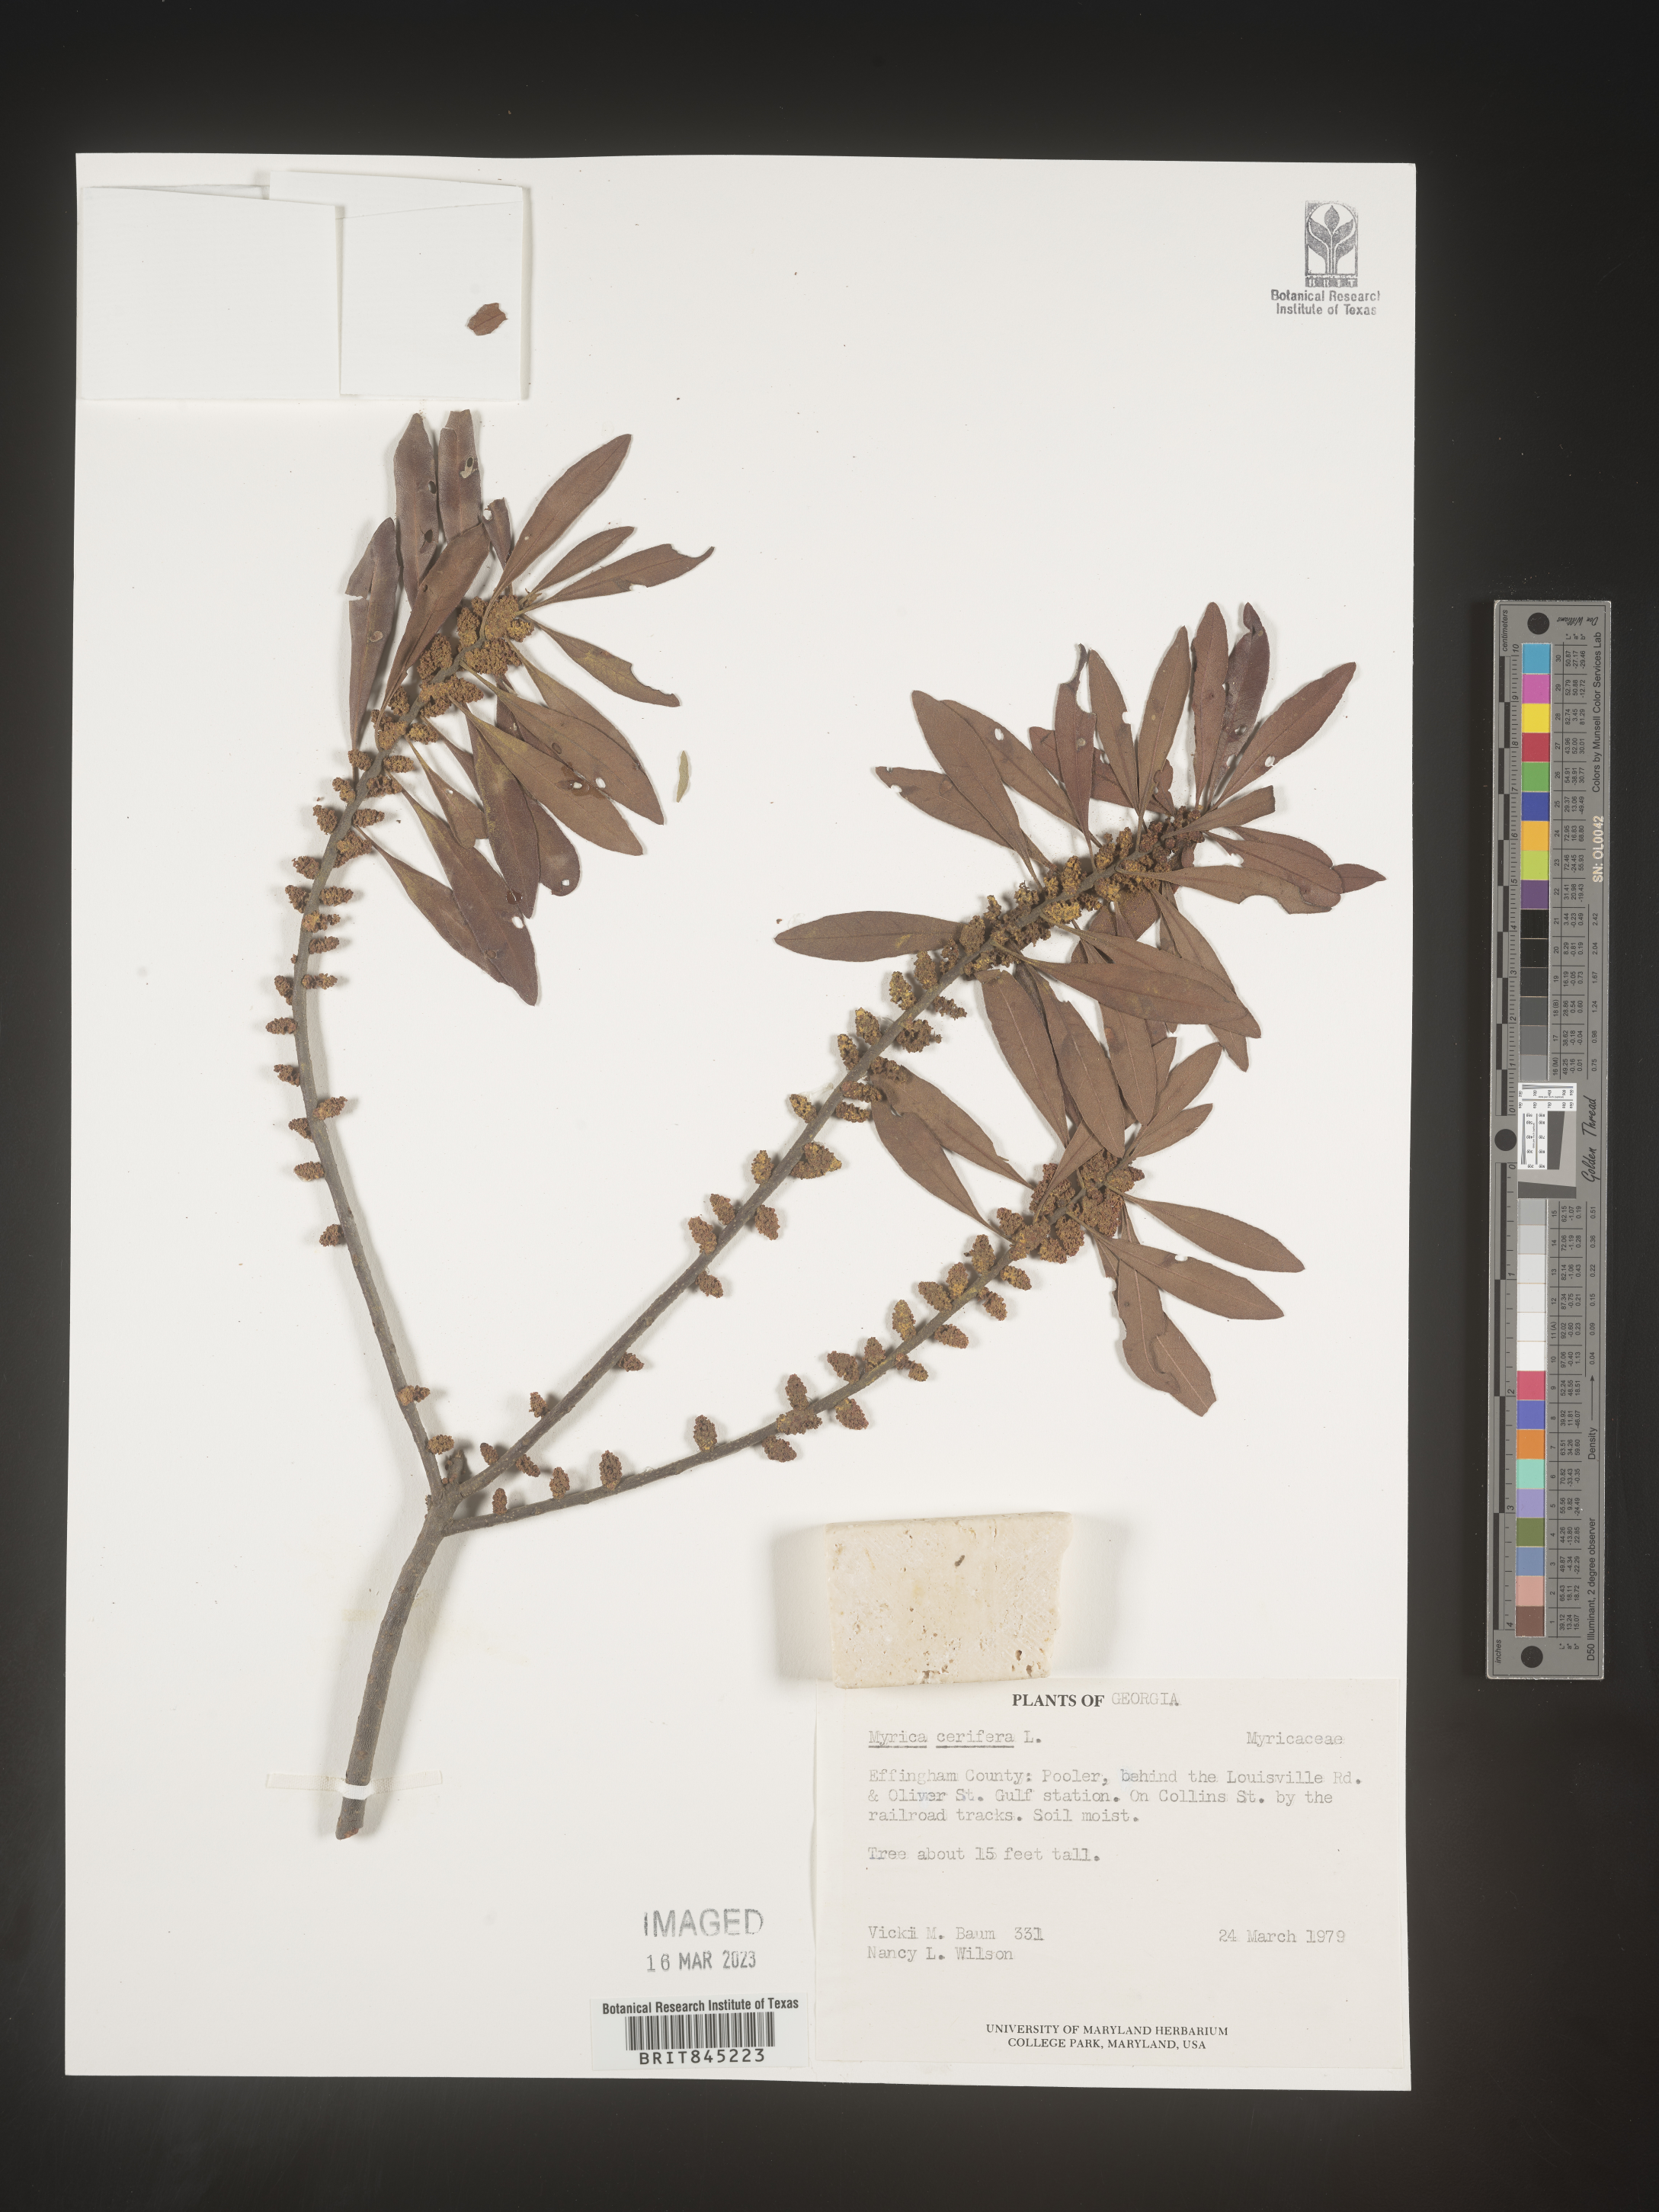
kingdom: Plantae
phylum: Tracheophyta
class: Magnoliopsida
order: Fagales
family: Myricaceae
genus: Morella
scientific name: Morella cerifera
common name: Wax myrtle
